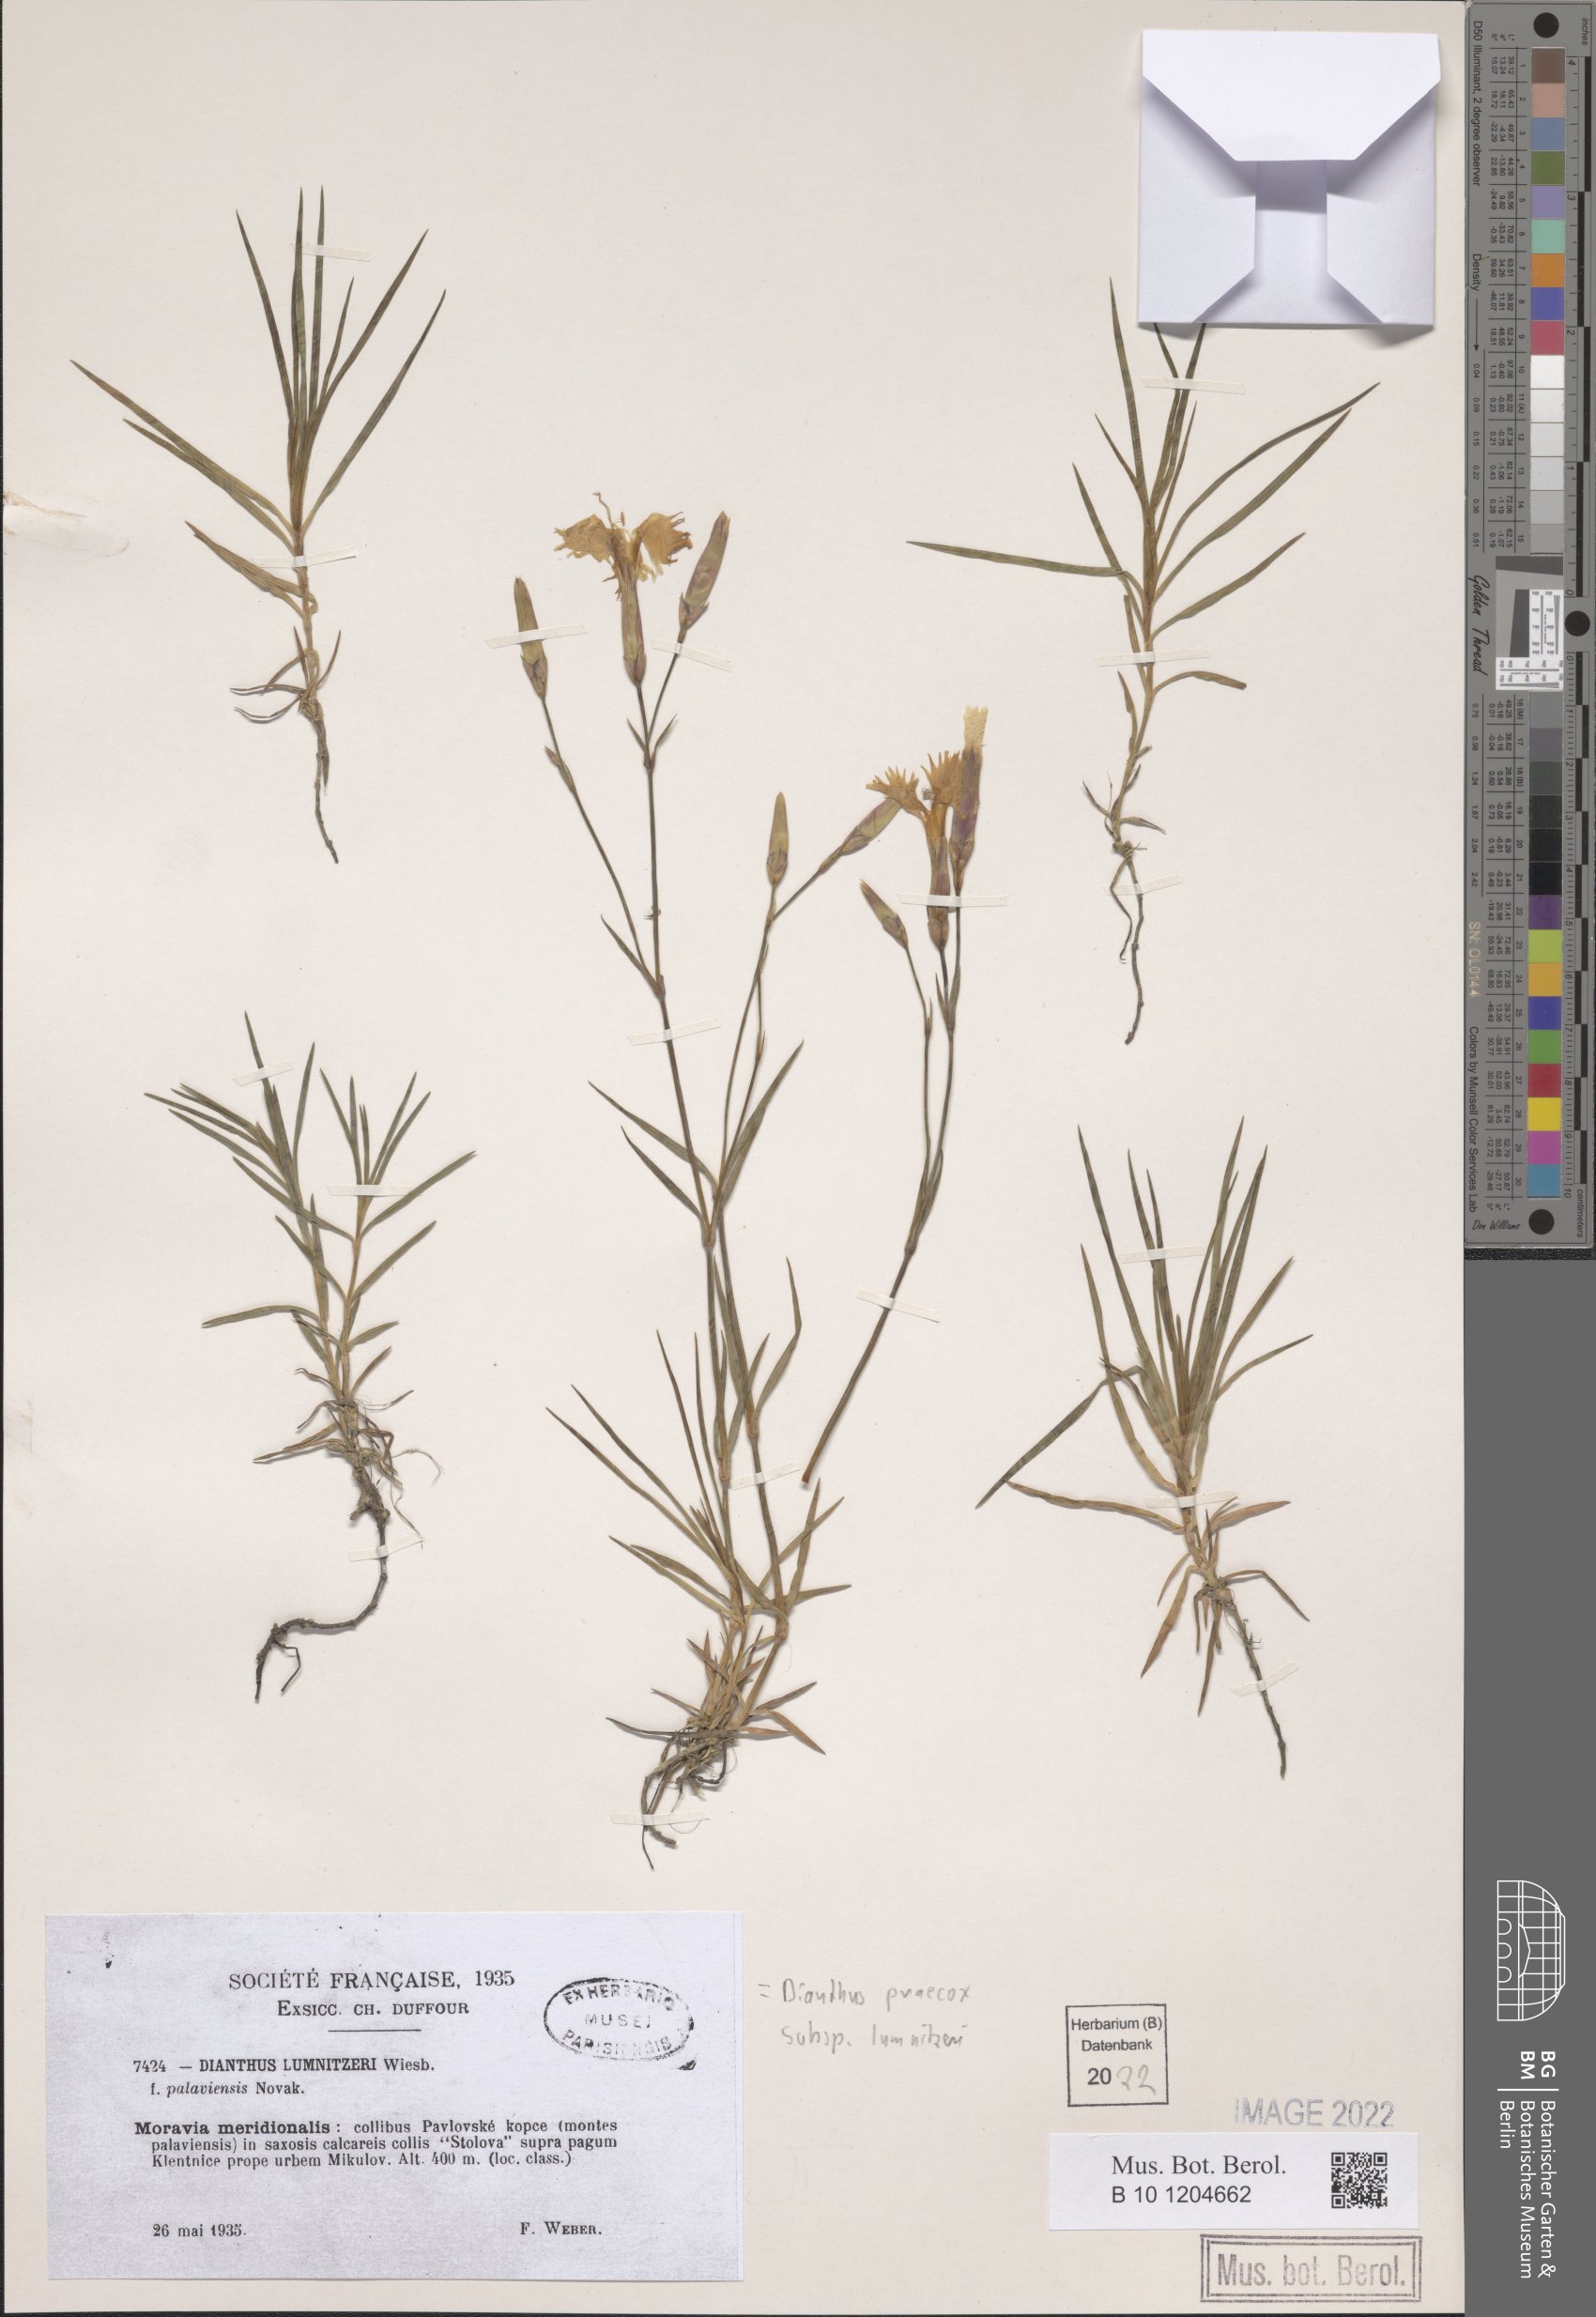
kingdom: Plantae
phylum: Tracheophyta
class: Magnoliopsida
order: Caryophyllales
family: Caryophyllaceae
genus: Dianthus
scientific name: Dianthus praecox
